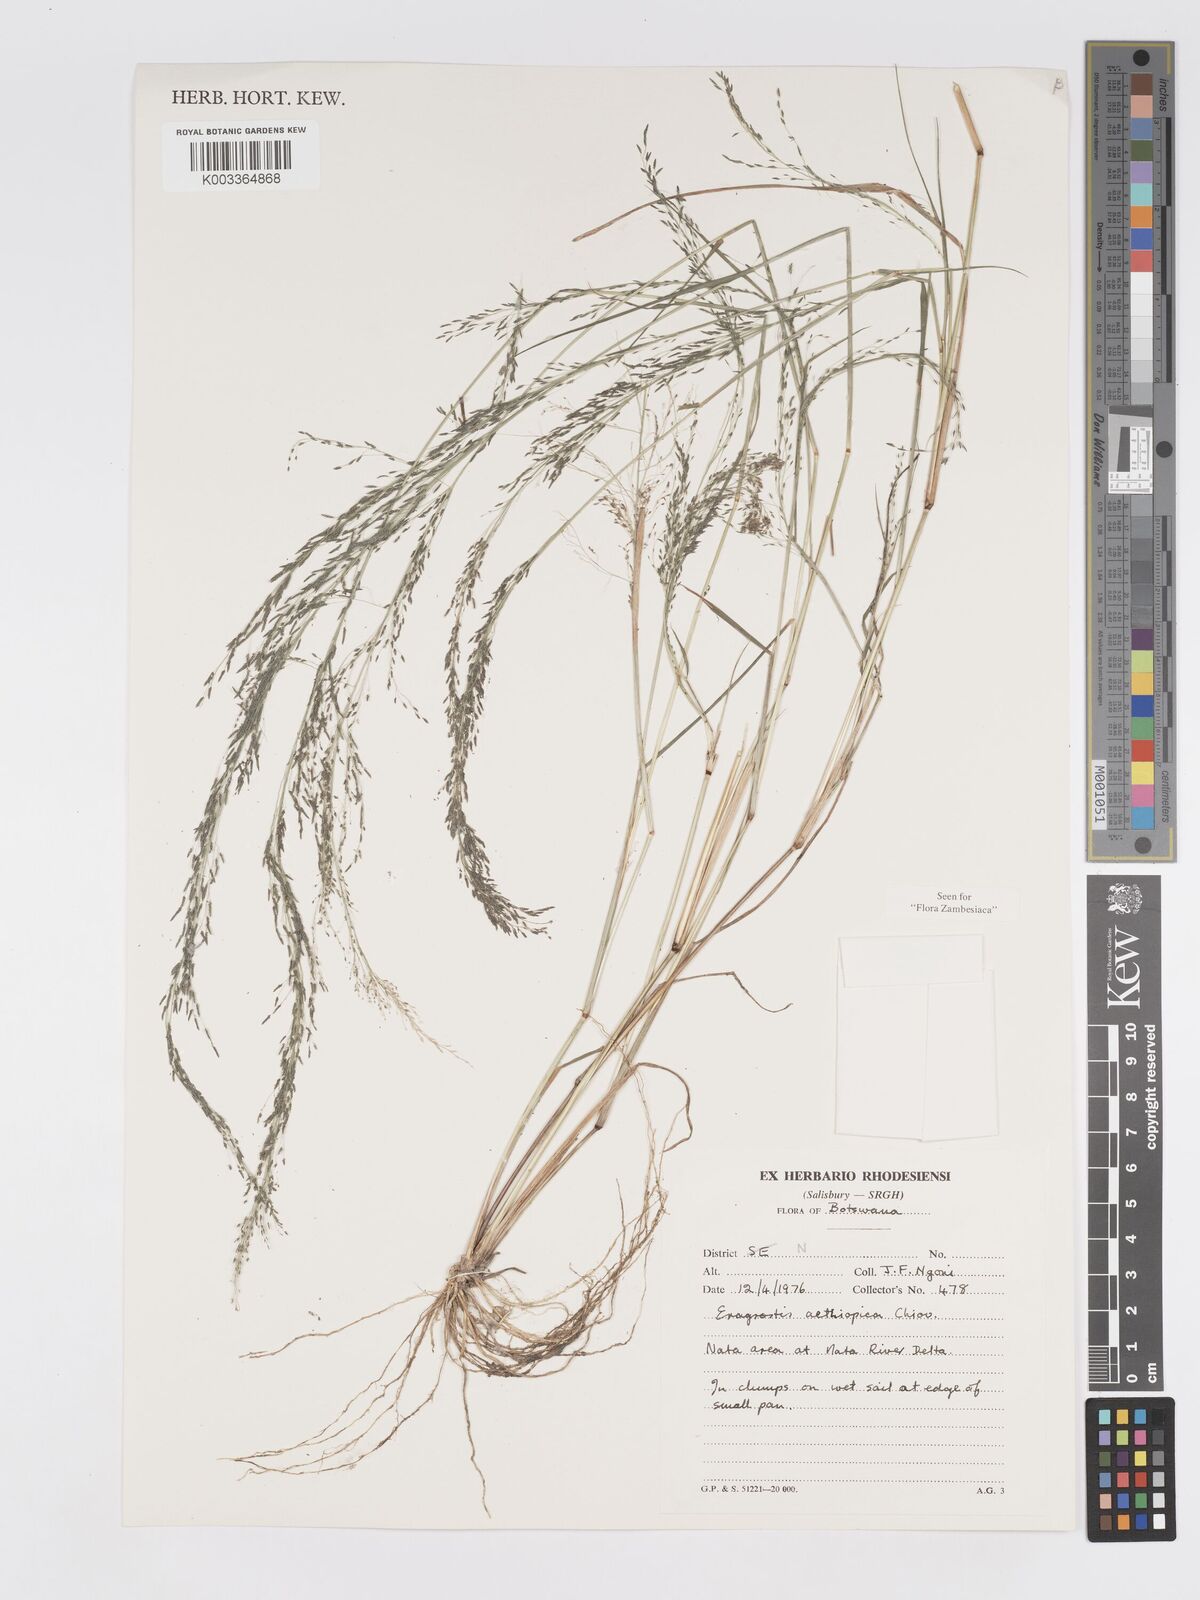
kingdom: Plantae
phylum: Tracheophyta
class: Liliopsida
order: Poales
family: Poaceae
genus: Eragrostis
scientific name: Eragrostis aethiopica
